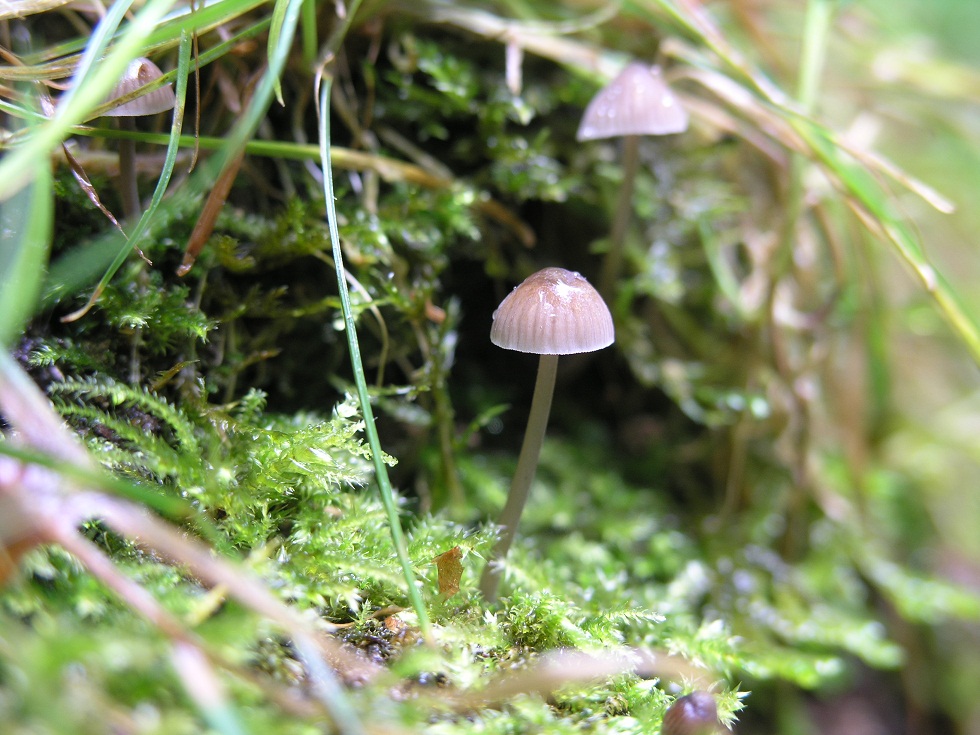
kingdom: Fungi
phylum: Basidiomycota
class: Agaricomycetes
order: Agaricales
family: Mycenaceae
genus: Mycena
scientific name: Mycena erubescens
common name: galde-huesvamp
